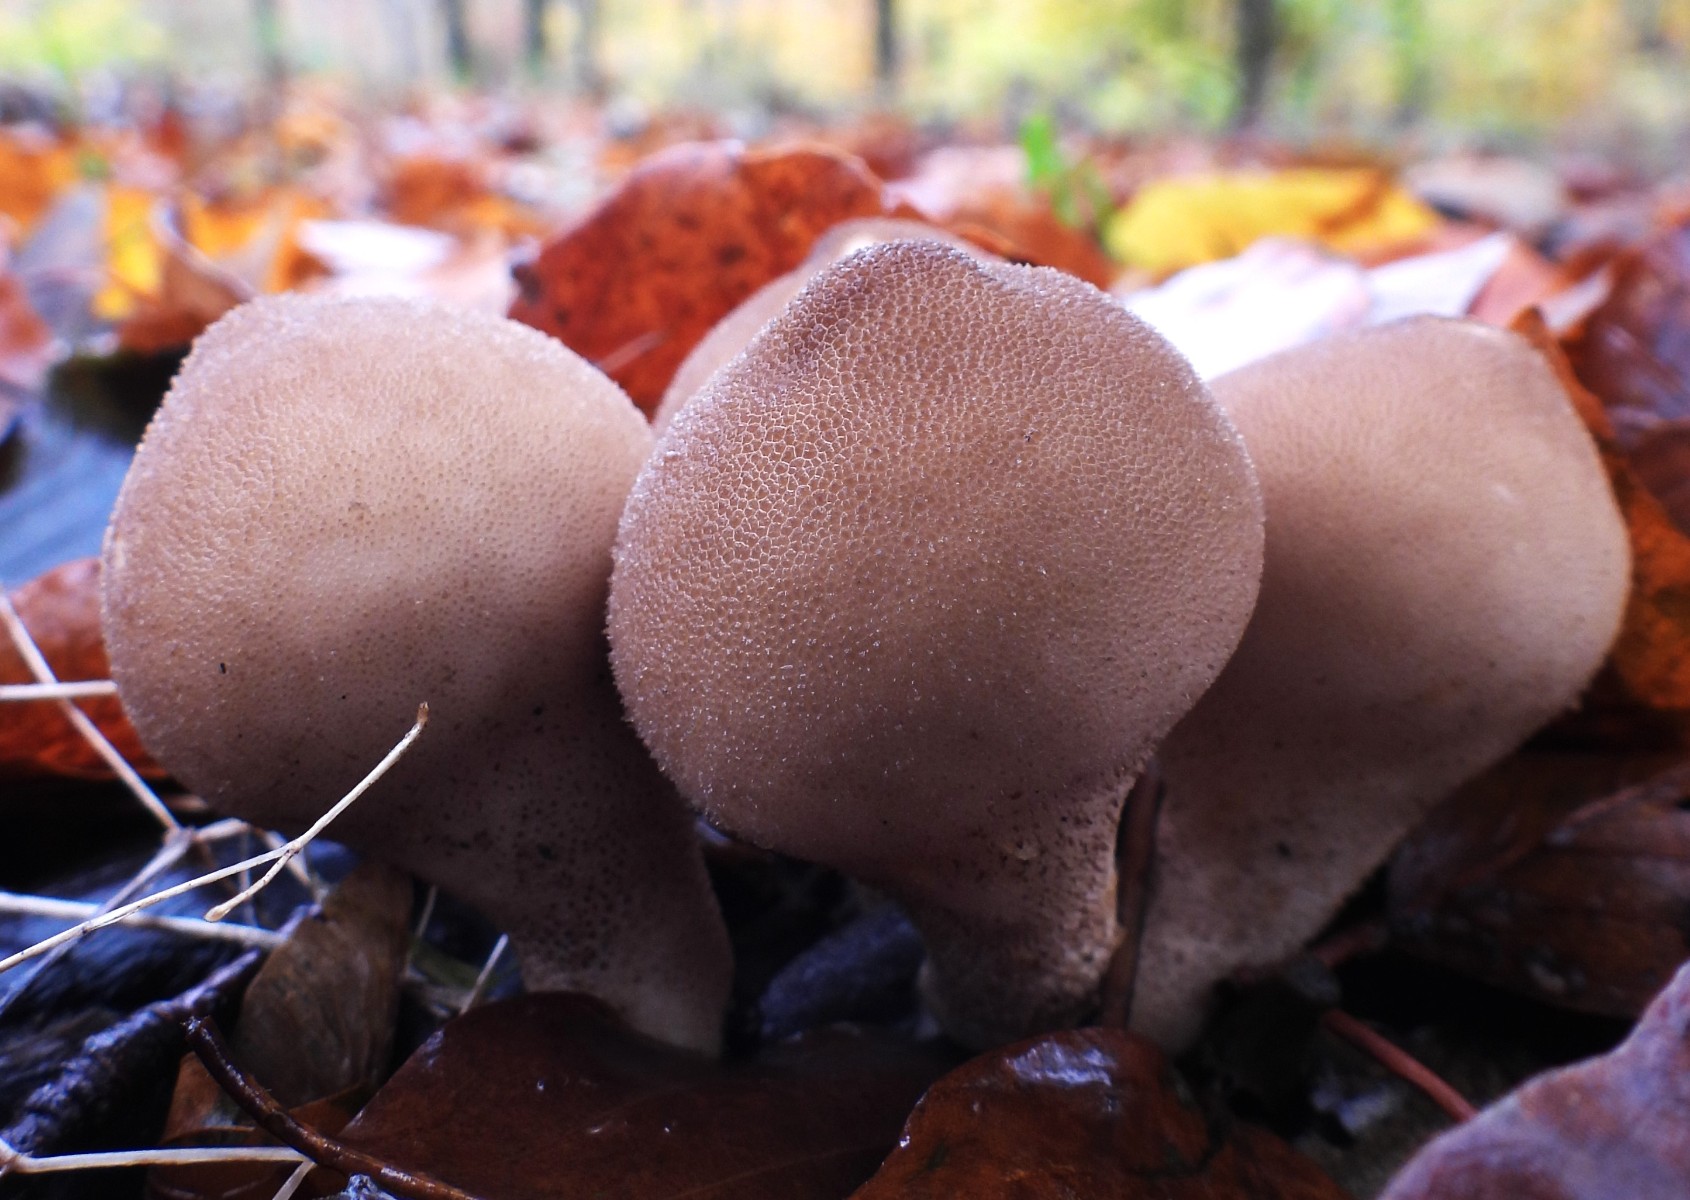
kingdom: Fungi
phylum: Basidiomycota
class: Agaricomycetes
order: Agaricales
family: Lycoperdaceae
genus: Apioperdon
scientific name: Apioperdon pyriforme
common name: pære-støvbold
